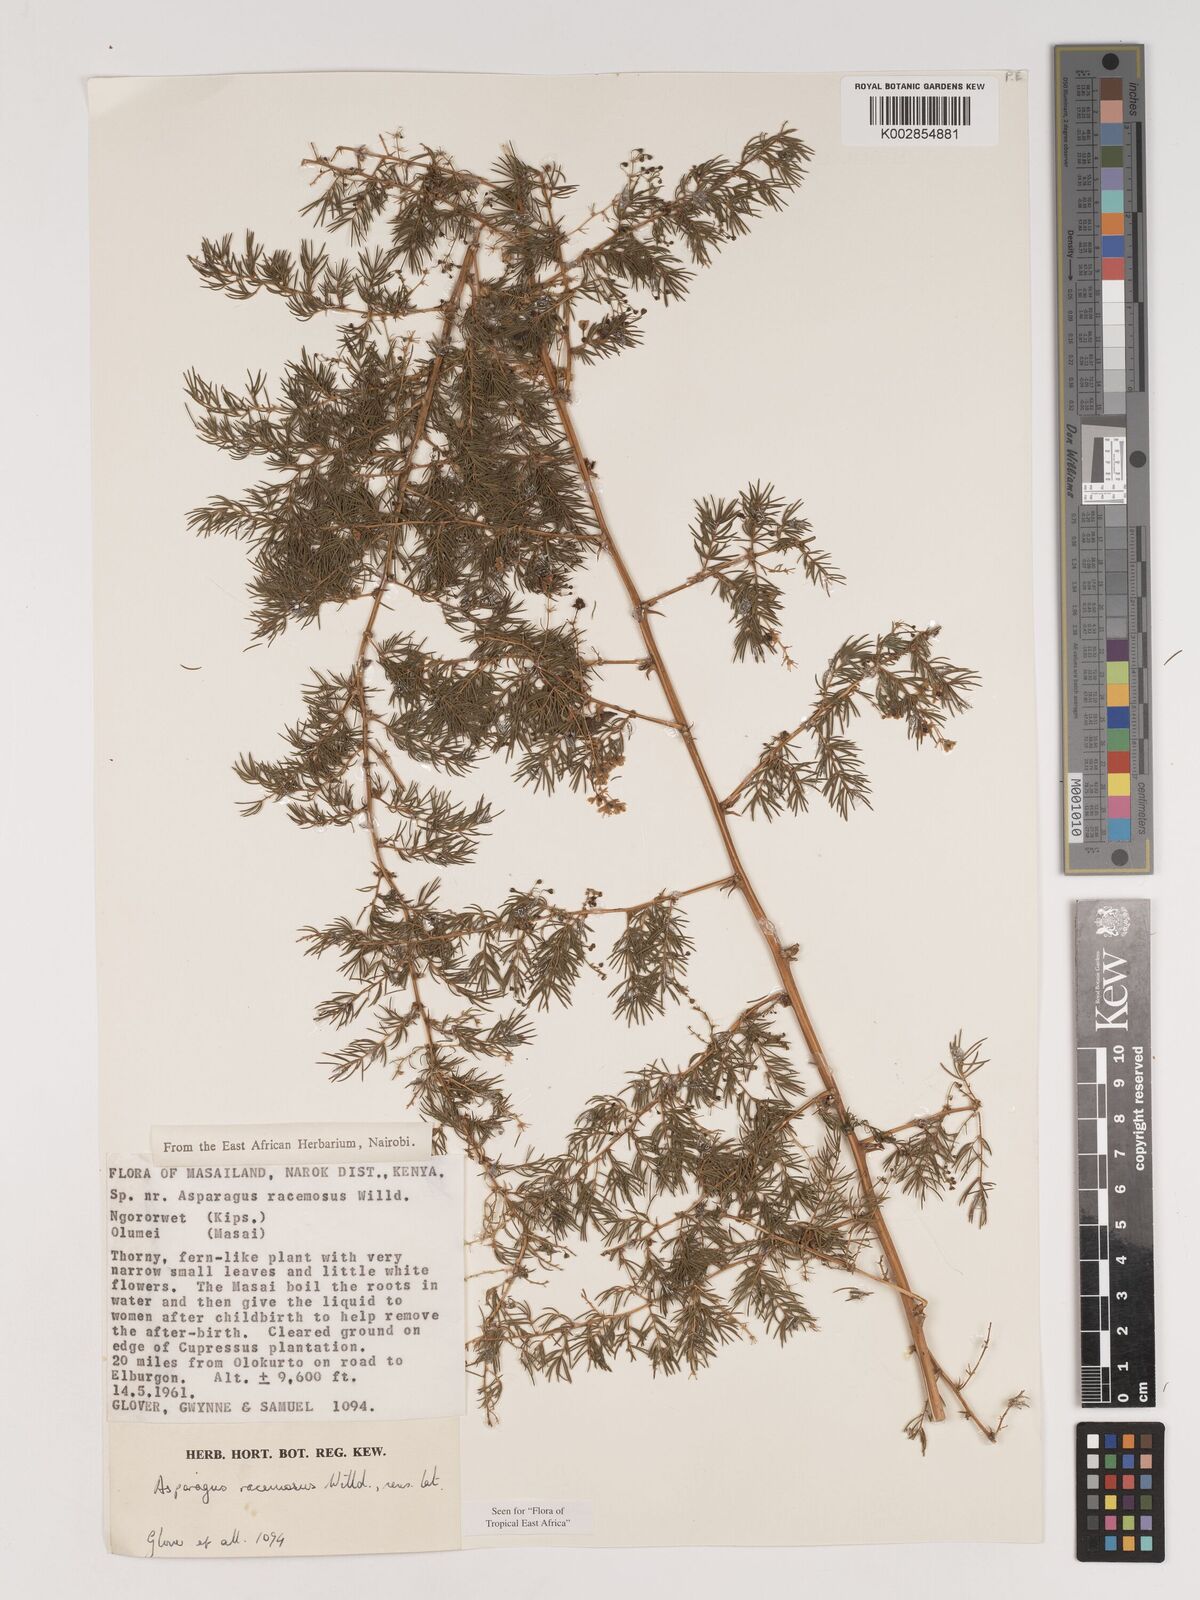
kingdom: Plantae
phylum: Tracheophyta
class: Liliopsida
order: Asparagales
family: Asparagaceae
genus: Asparagus
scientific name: Asparagus racemosus
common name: Asparagus-fern
